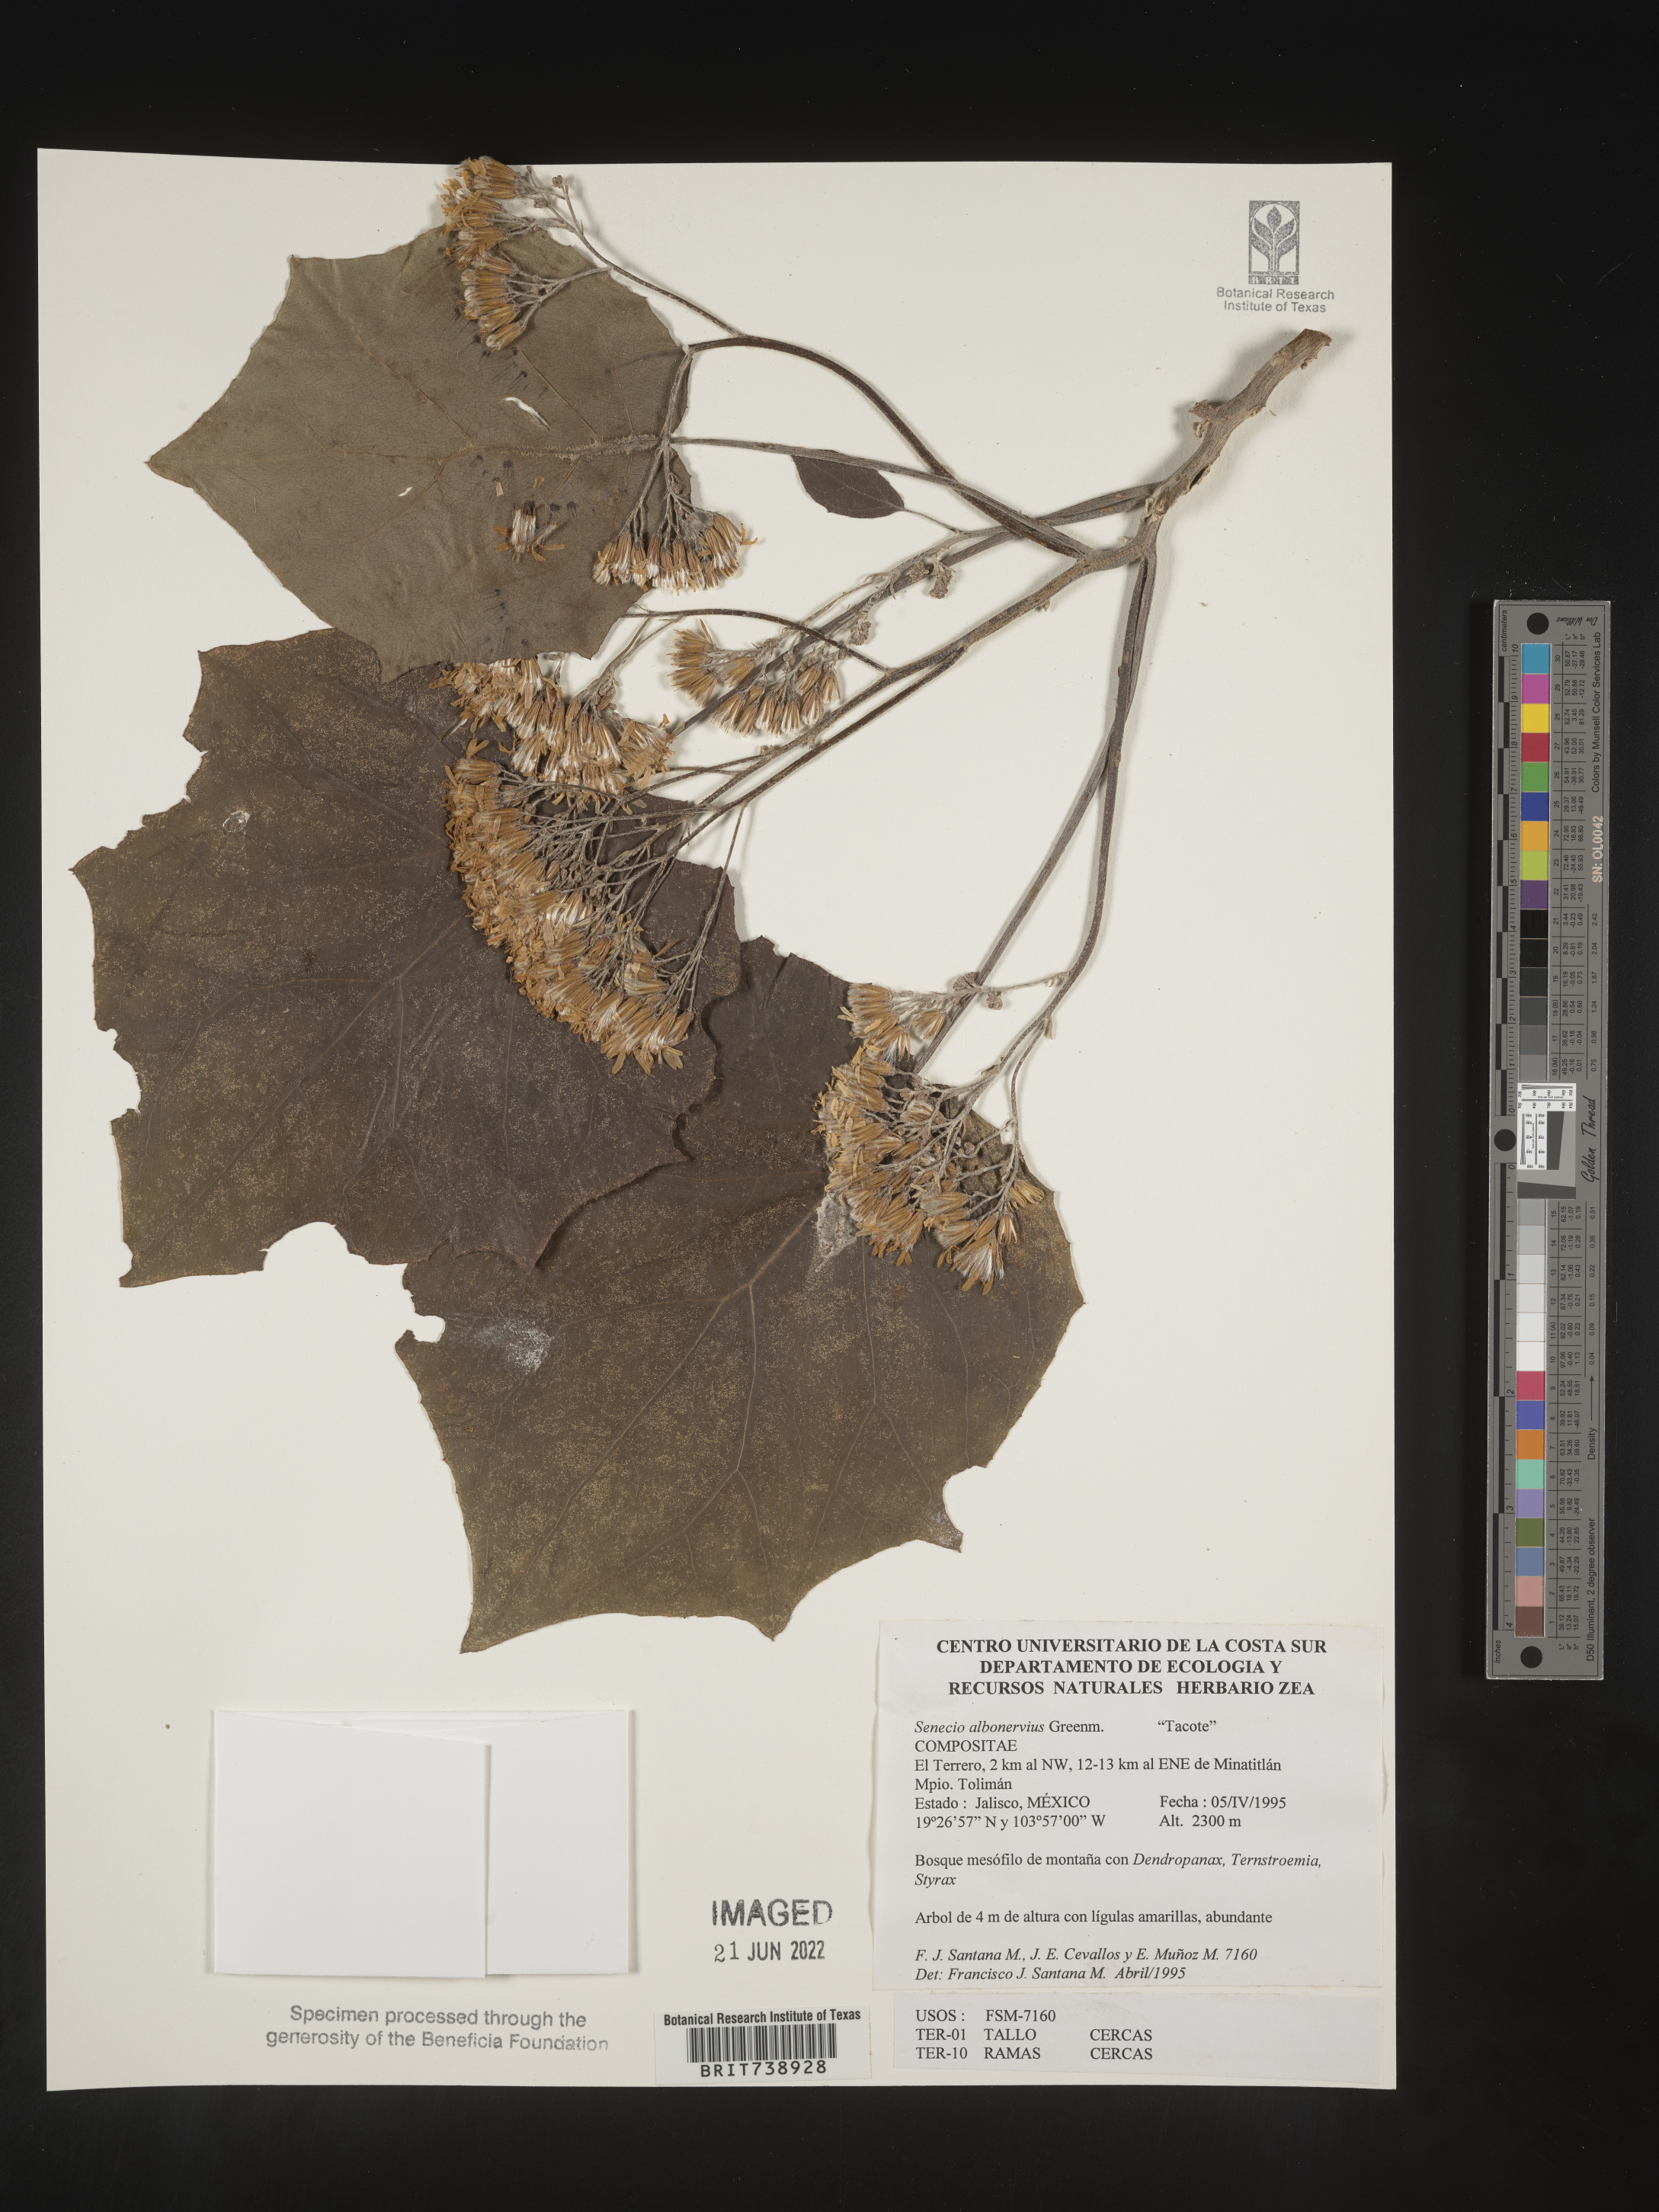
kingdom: Plantae
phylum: Tracheophyta
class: Magnoliopsida
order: Asterales
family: Asteraceae
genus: Roldana
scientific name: Roldana
